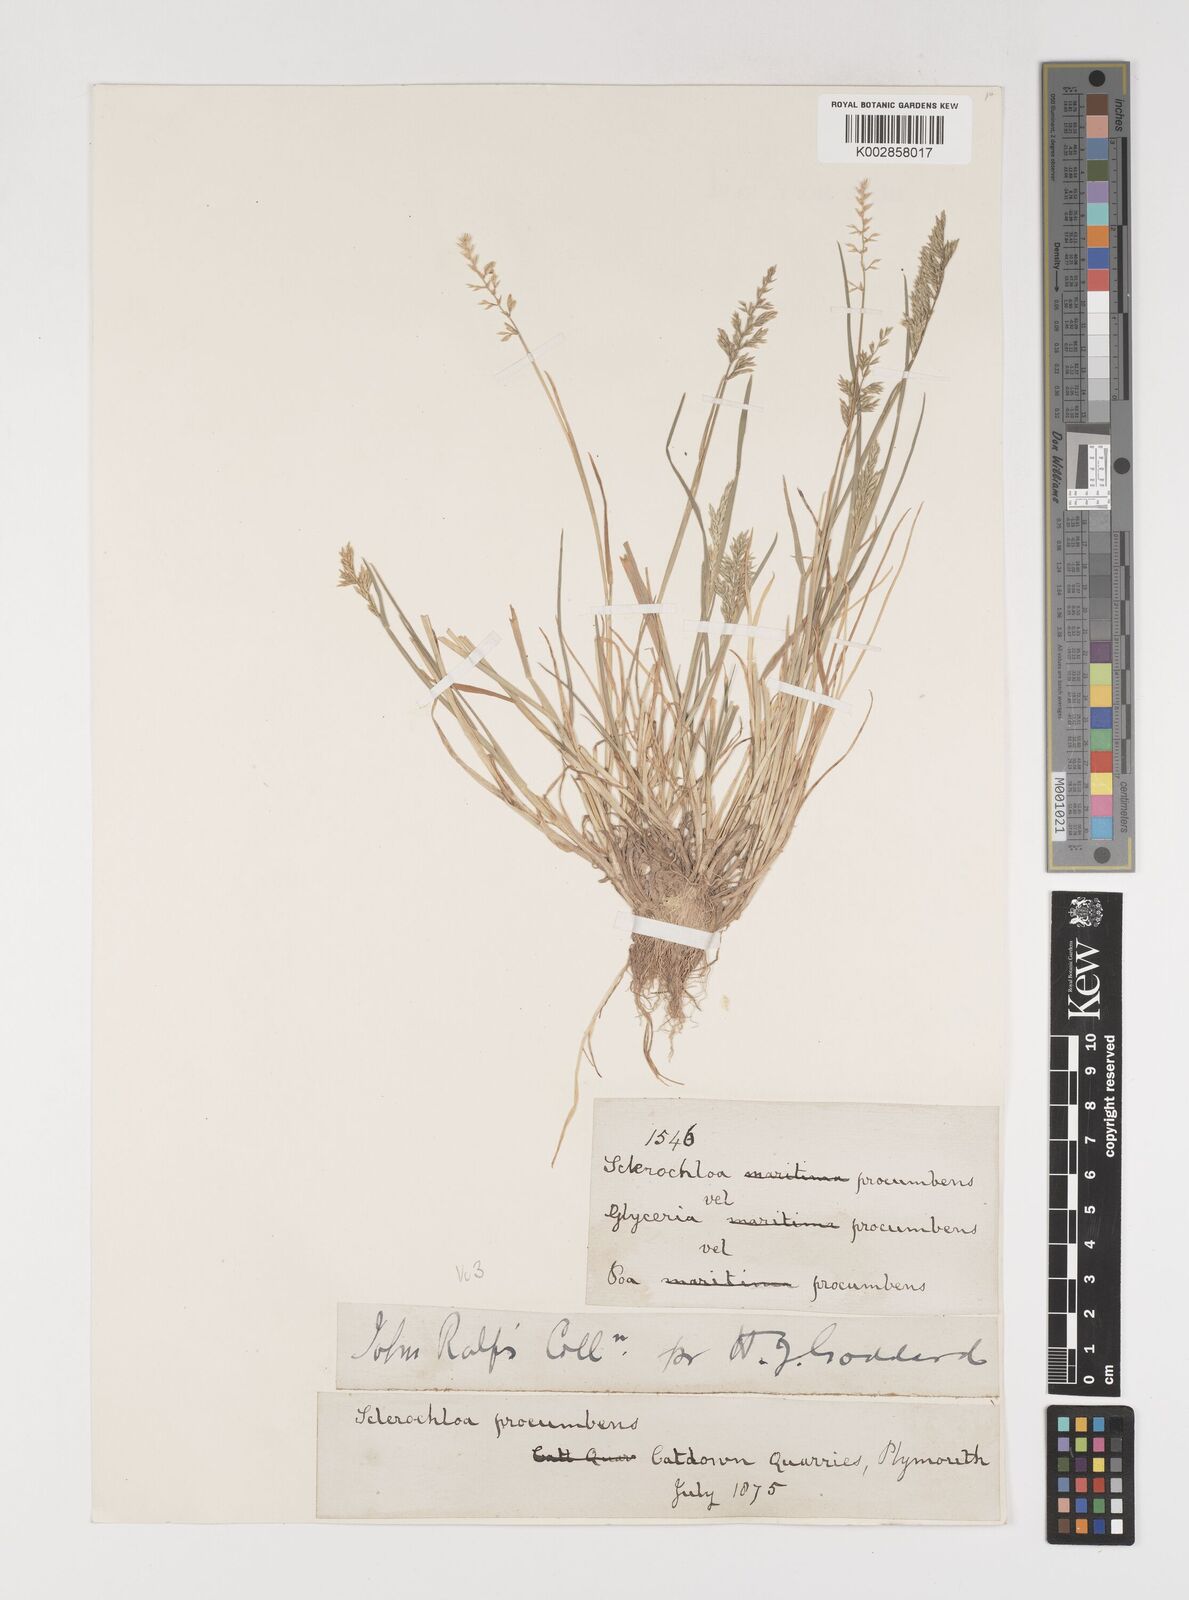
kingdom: Plantae
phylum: Tracheophyta
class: Liliopsida
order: Poales
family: Poaceae
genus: Puccinellia
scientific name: Puccinellia rupestris
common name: Stiff saltmarsh-grass
